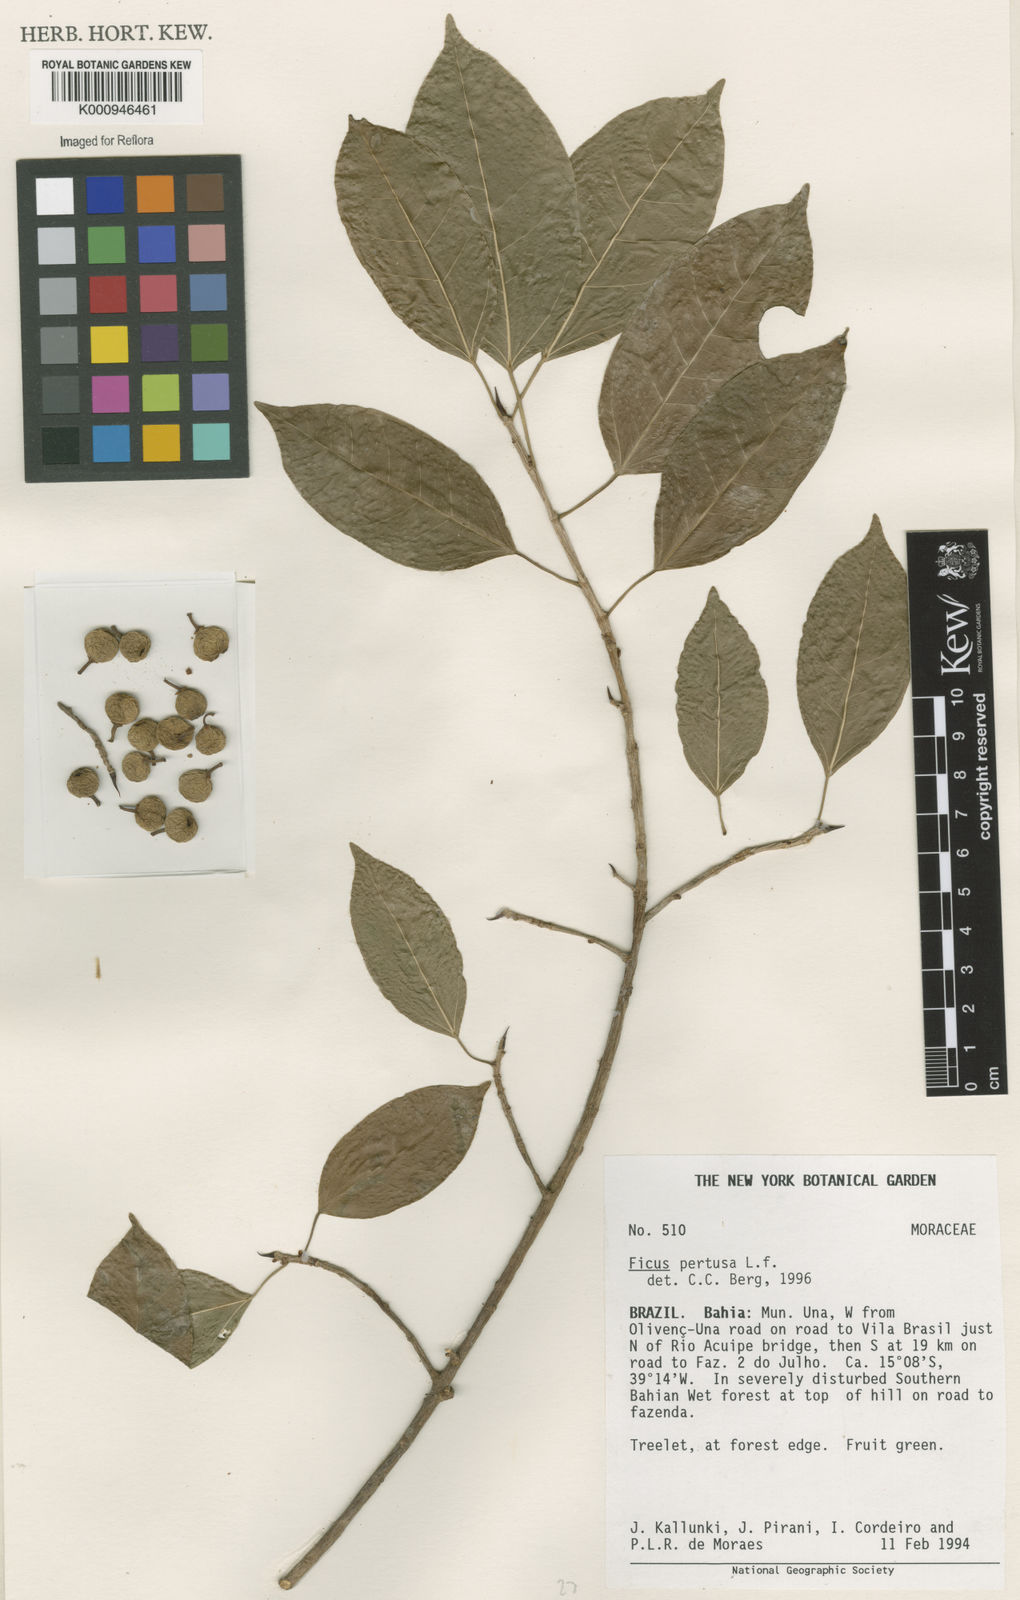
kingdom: Plantae
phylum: Tracheophyta
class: Magnoliopsida
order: Rosales
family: Moraceae
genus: Ficus
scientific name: Ficus pertusa
